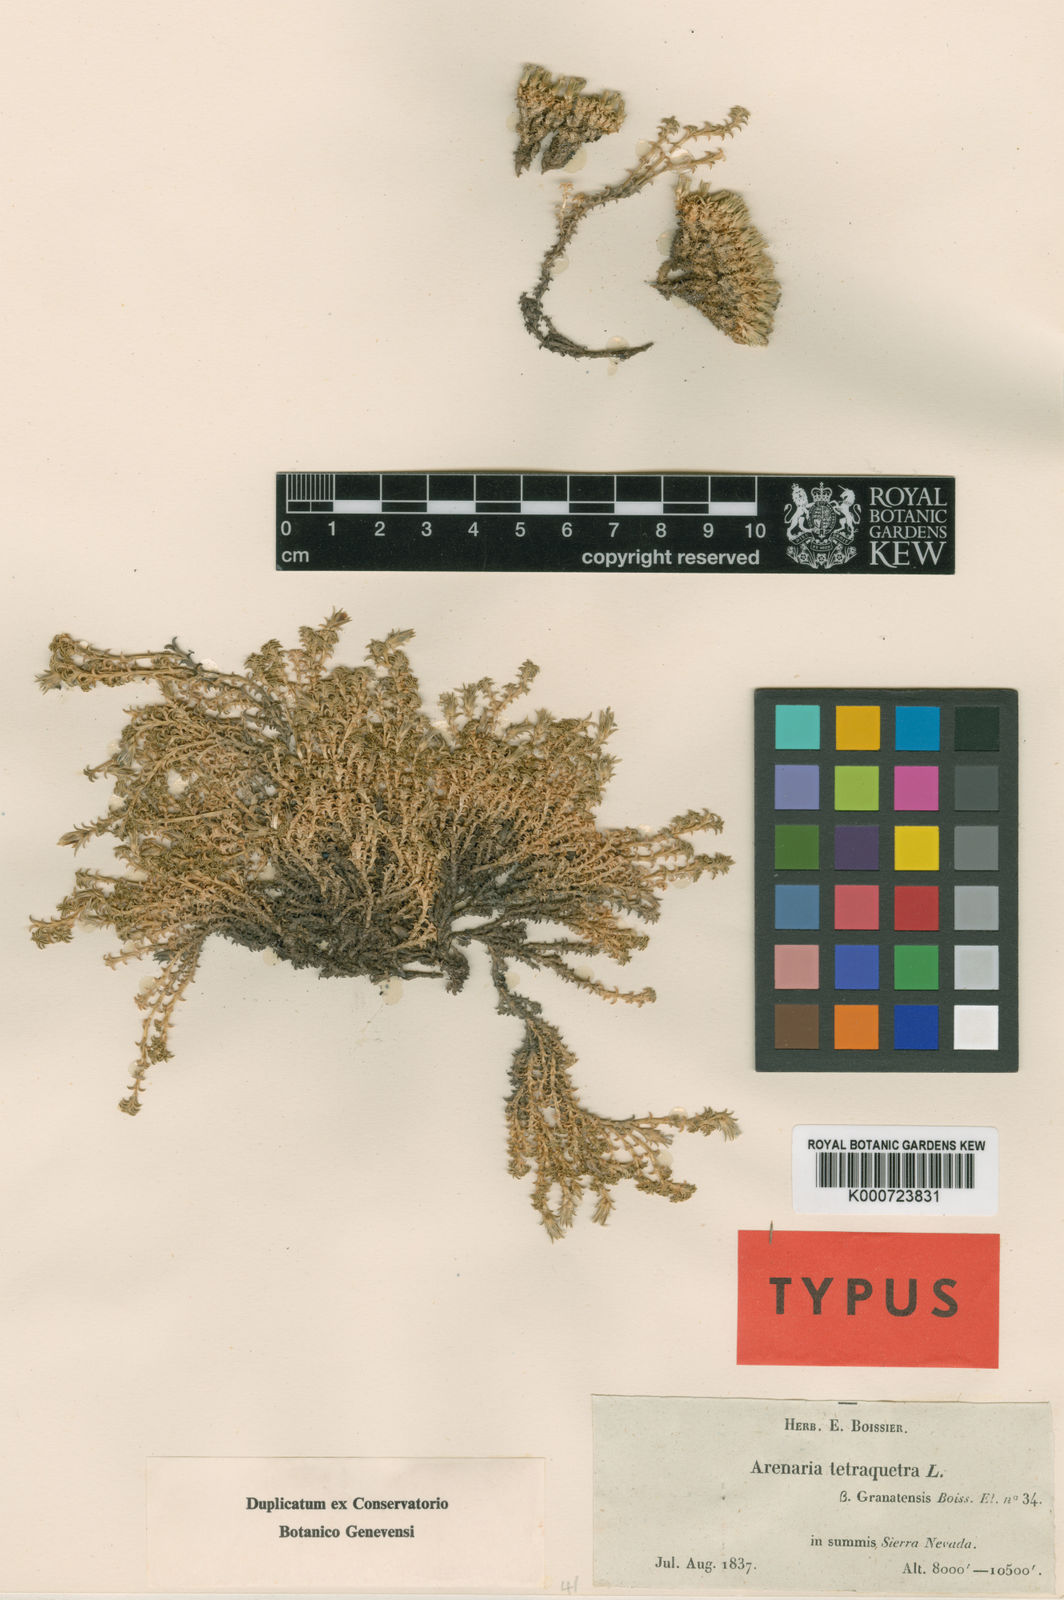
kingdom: Plantae
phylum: Tracheophyta
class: Magnoliopsida
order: Caryophyllales
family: Caryophyllaceae
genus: Arenaria
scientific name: Arenaria tetraquetra
